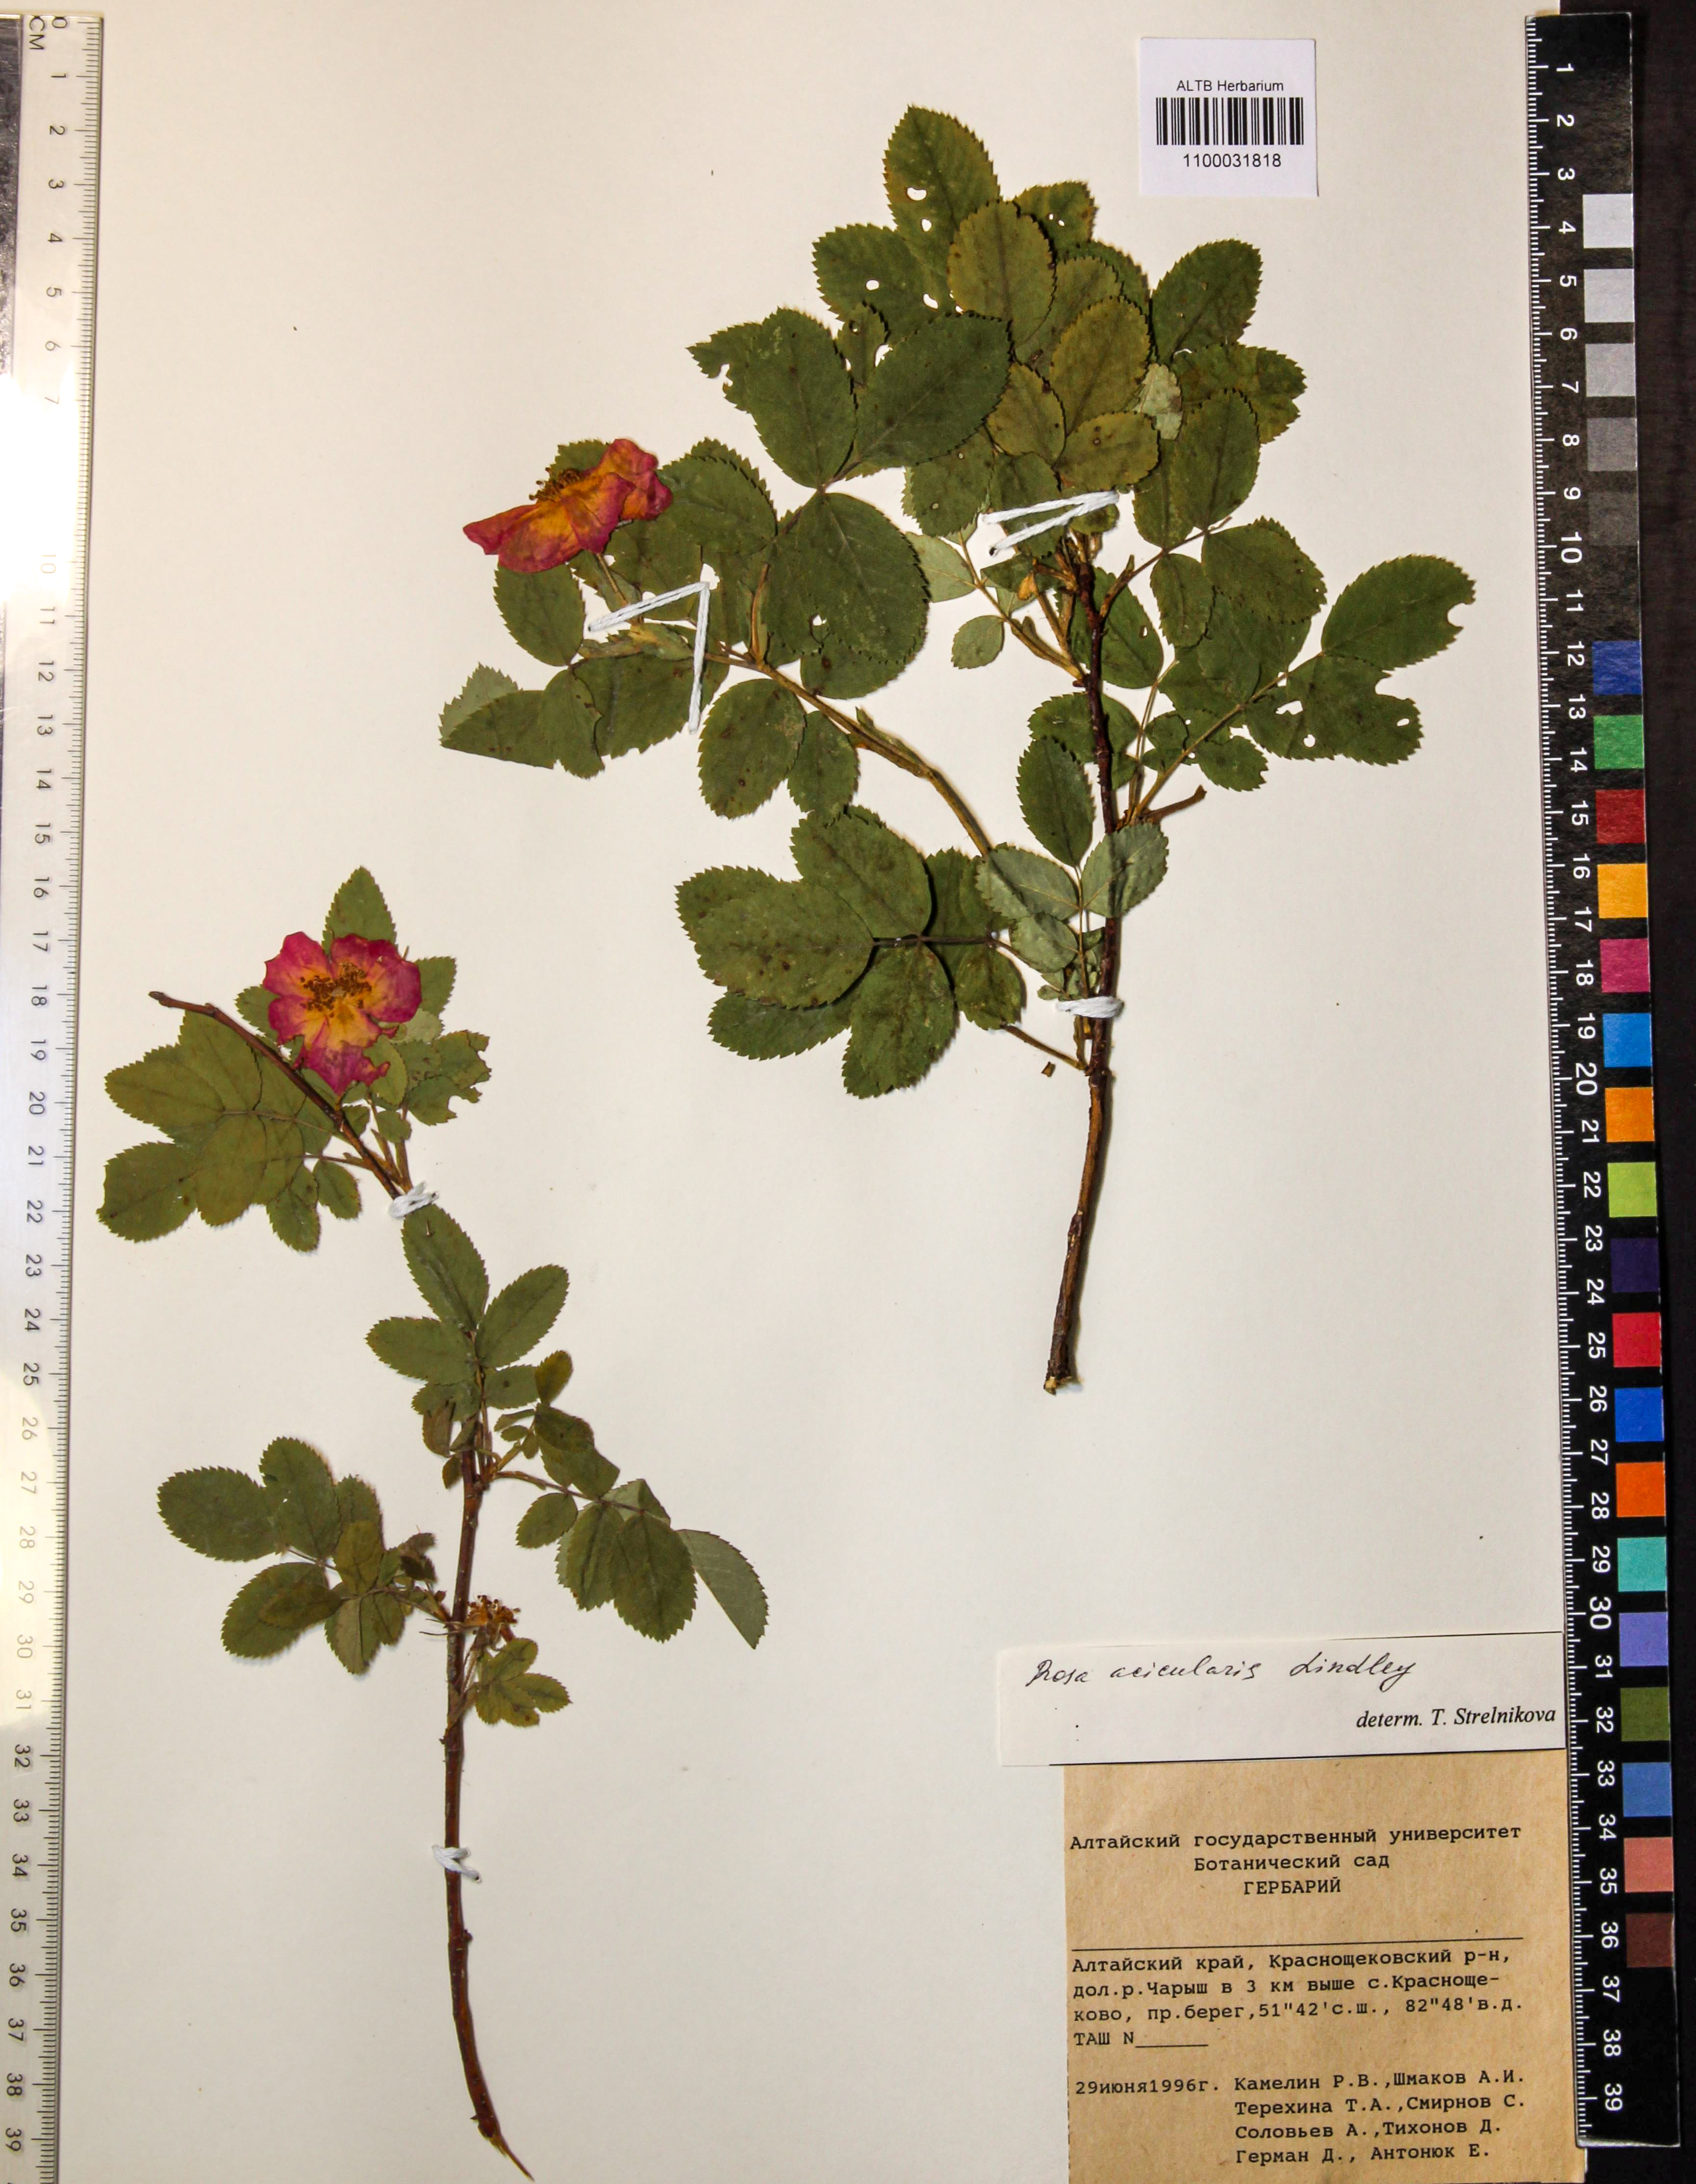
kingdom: Plantae
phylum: Tracheophyta
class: Magnoliopsida
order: Rosales
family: Rosaceae
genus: Rosa
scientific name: Rosa acicularis
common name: Prickly rose
